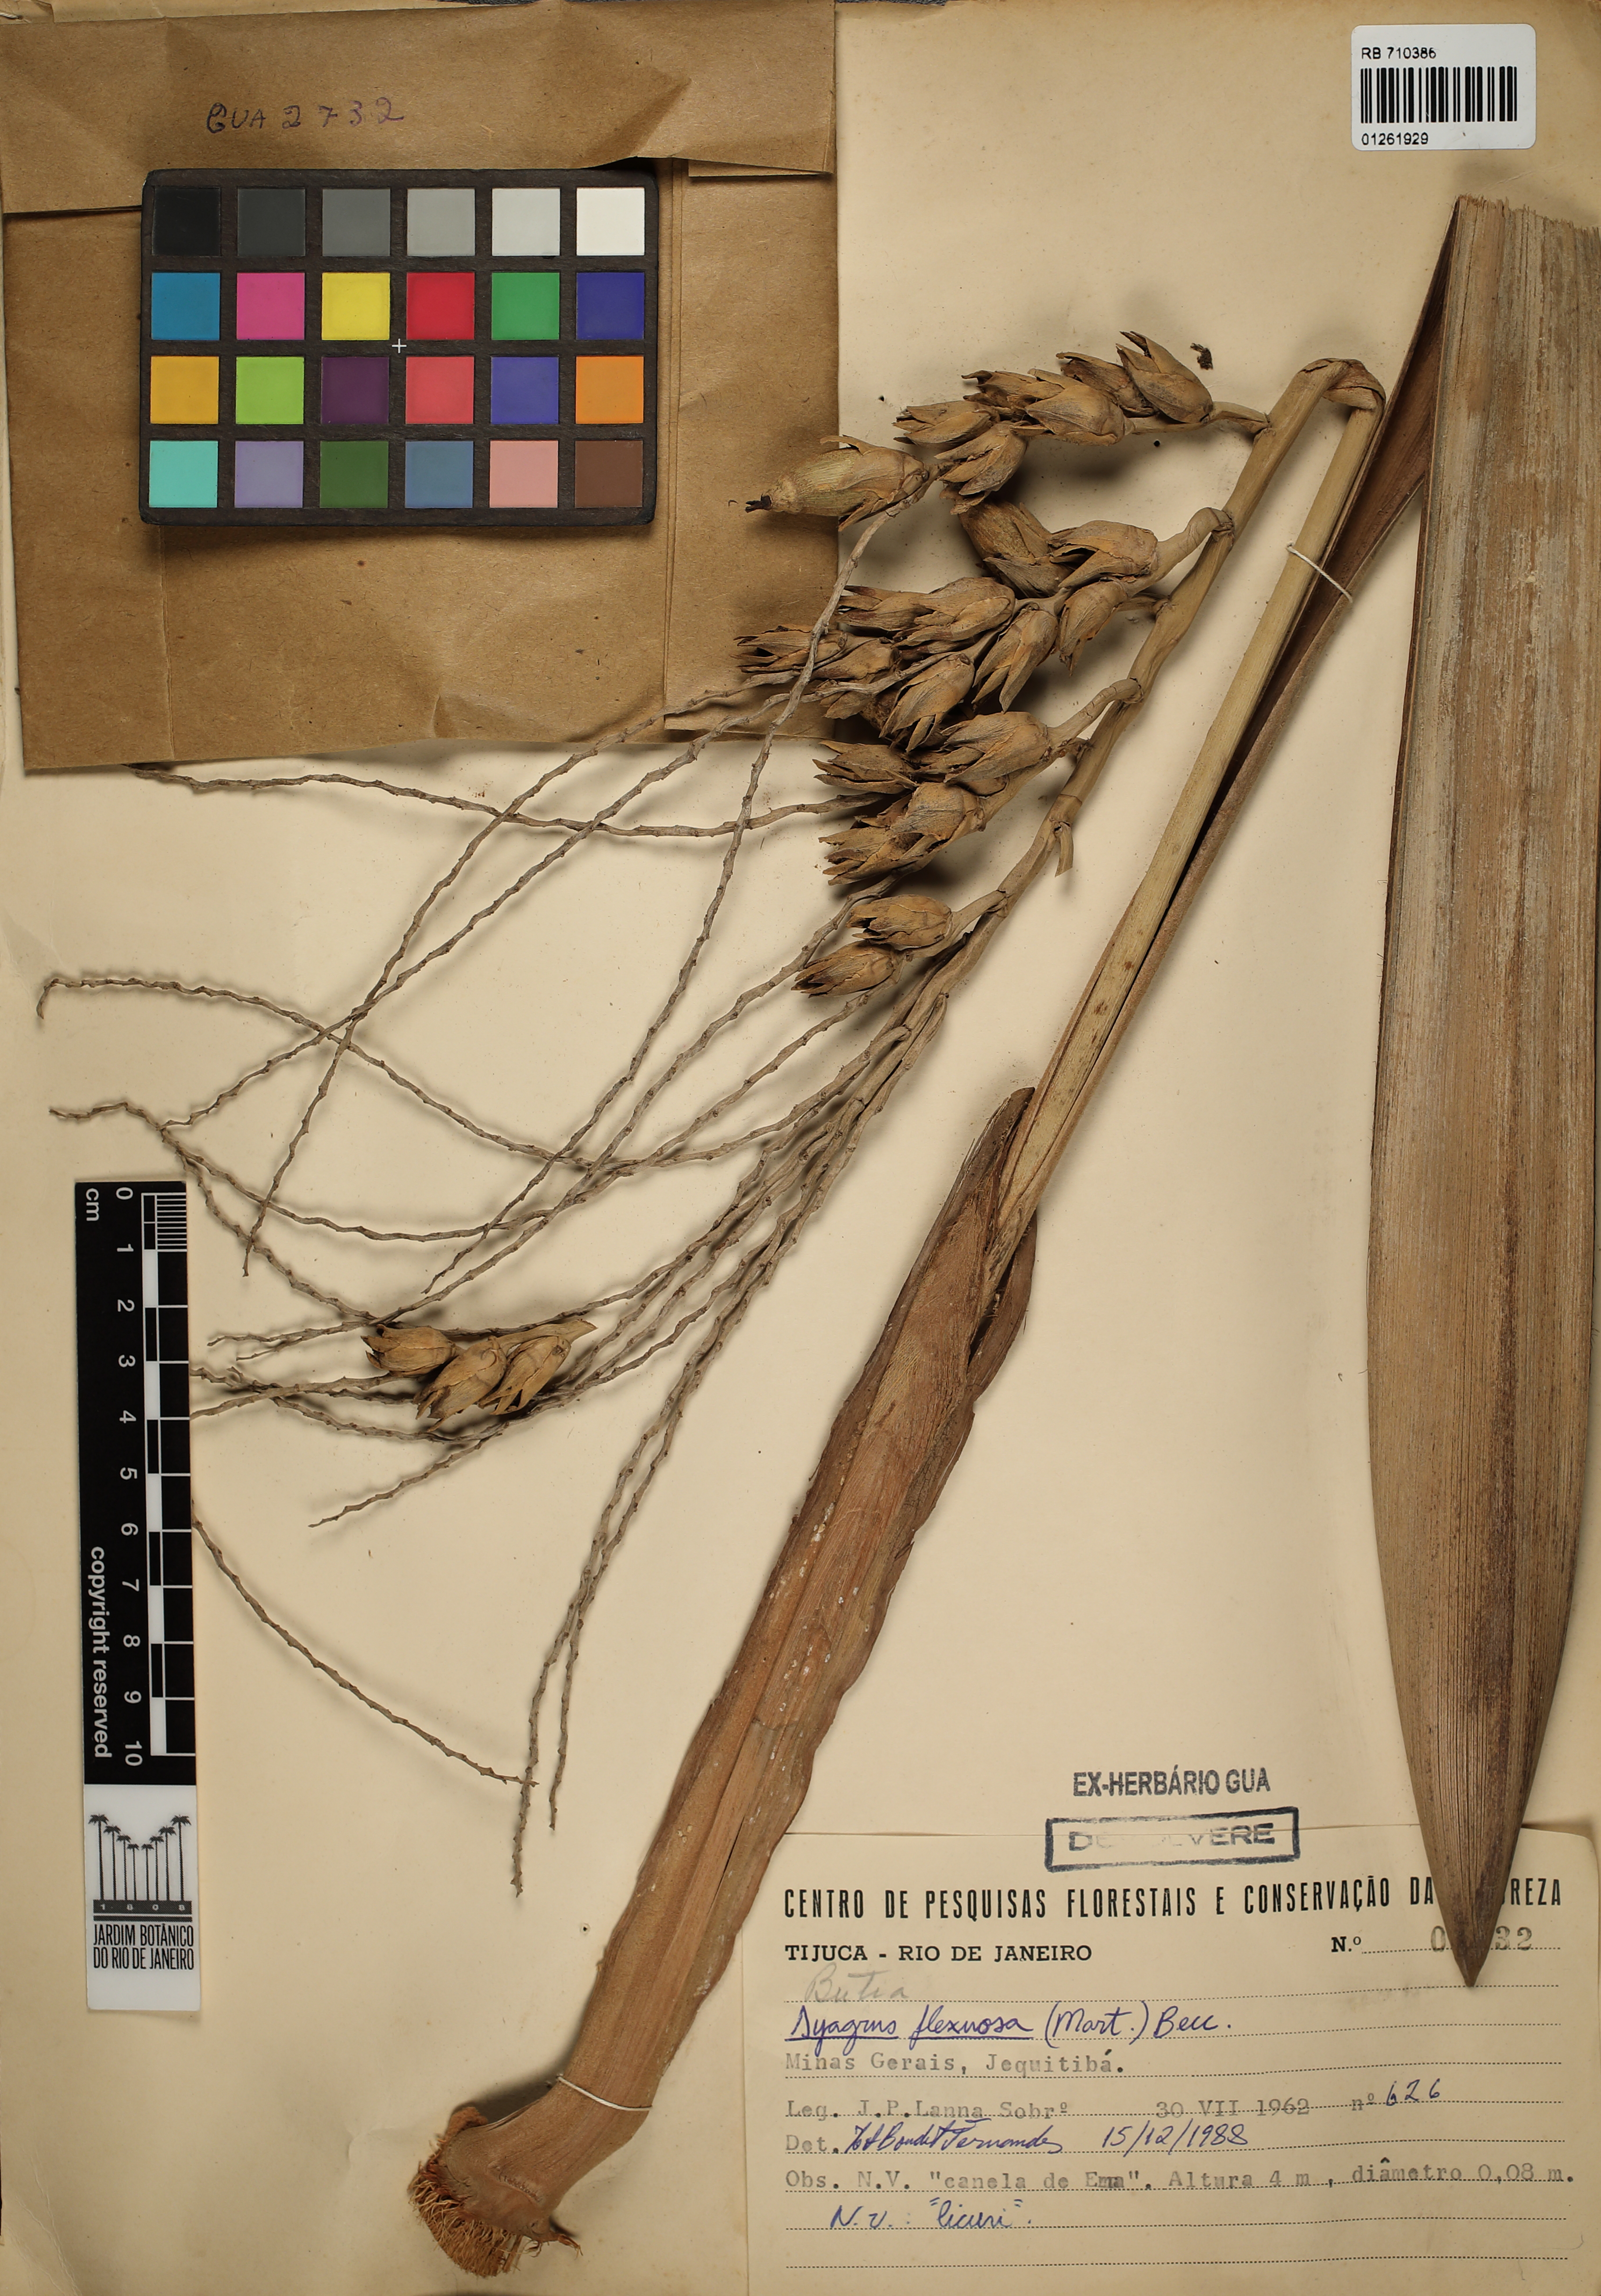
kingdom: Plantae
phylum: Tracheophyta
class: Liliopsida
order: Arecales
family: Arecaceae
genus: Syagrus
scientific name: Syagrus flexuosa
